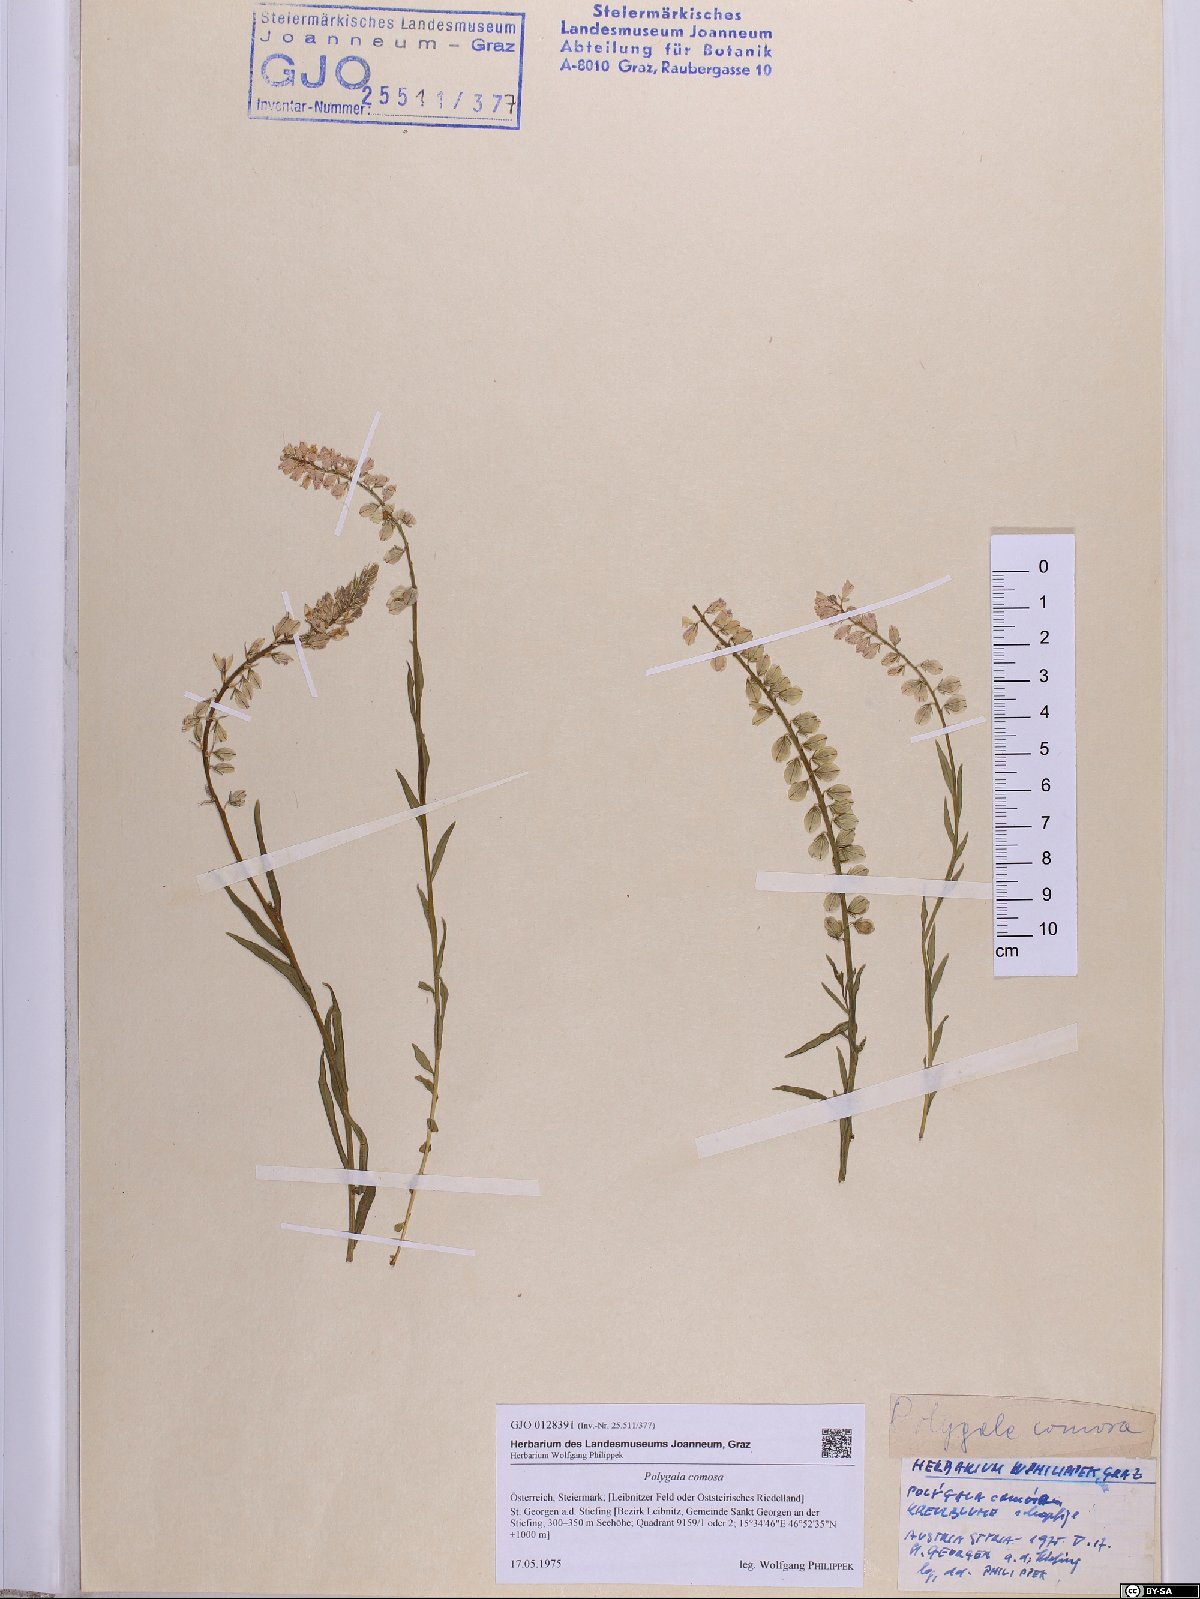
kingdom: Plantae
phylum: Tracheophyta
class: Magnoliopsida
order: Fabales
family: Polygalaceae
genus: Polygala
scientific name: Polygala comosa
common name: Tufted milkwort
